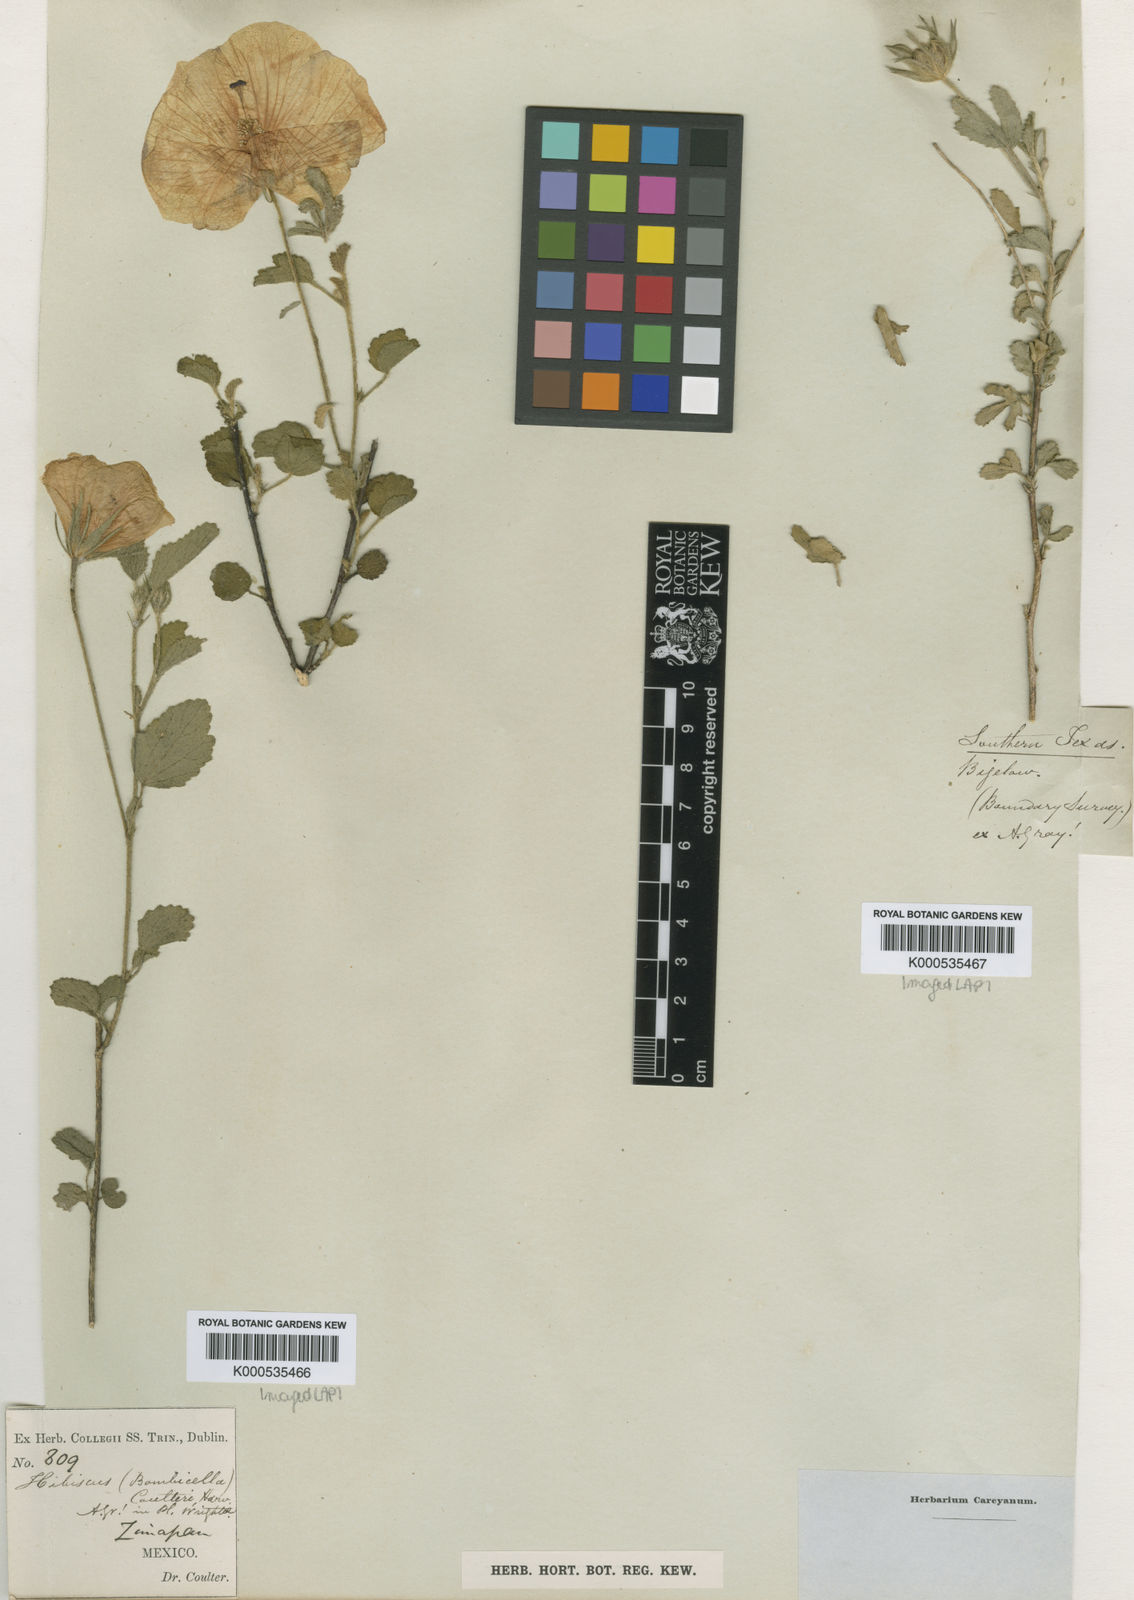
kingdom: Plantae
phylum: Tracheophyta
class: Magnoliopsida
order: Malvales
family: Malvaceae
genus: Hibiscus
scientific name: Hibiscus coulteri
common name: Desert rose-mallow
